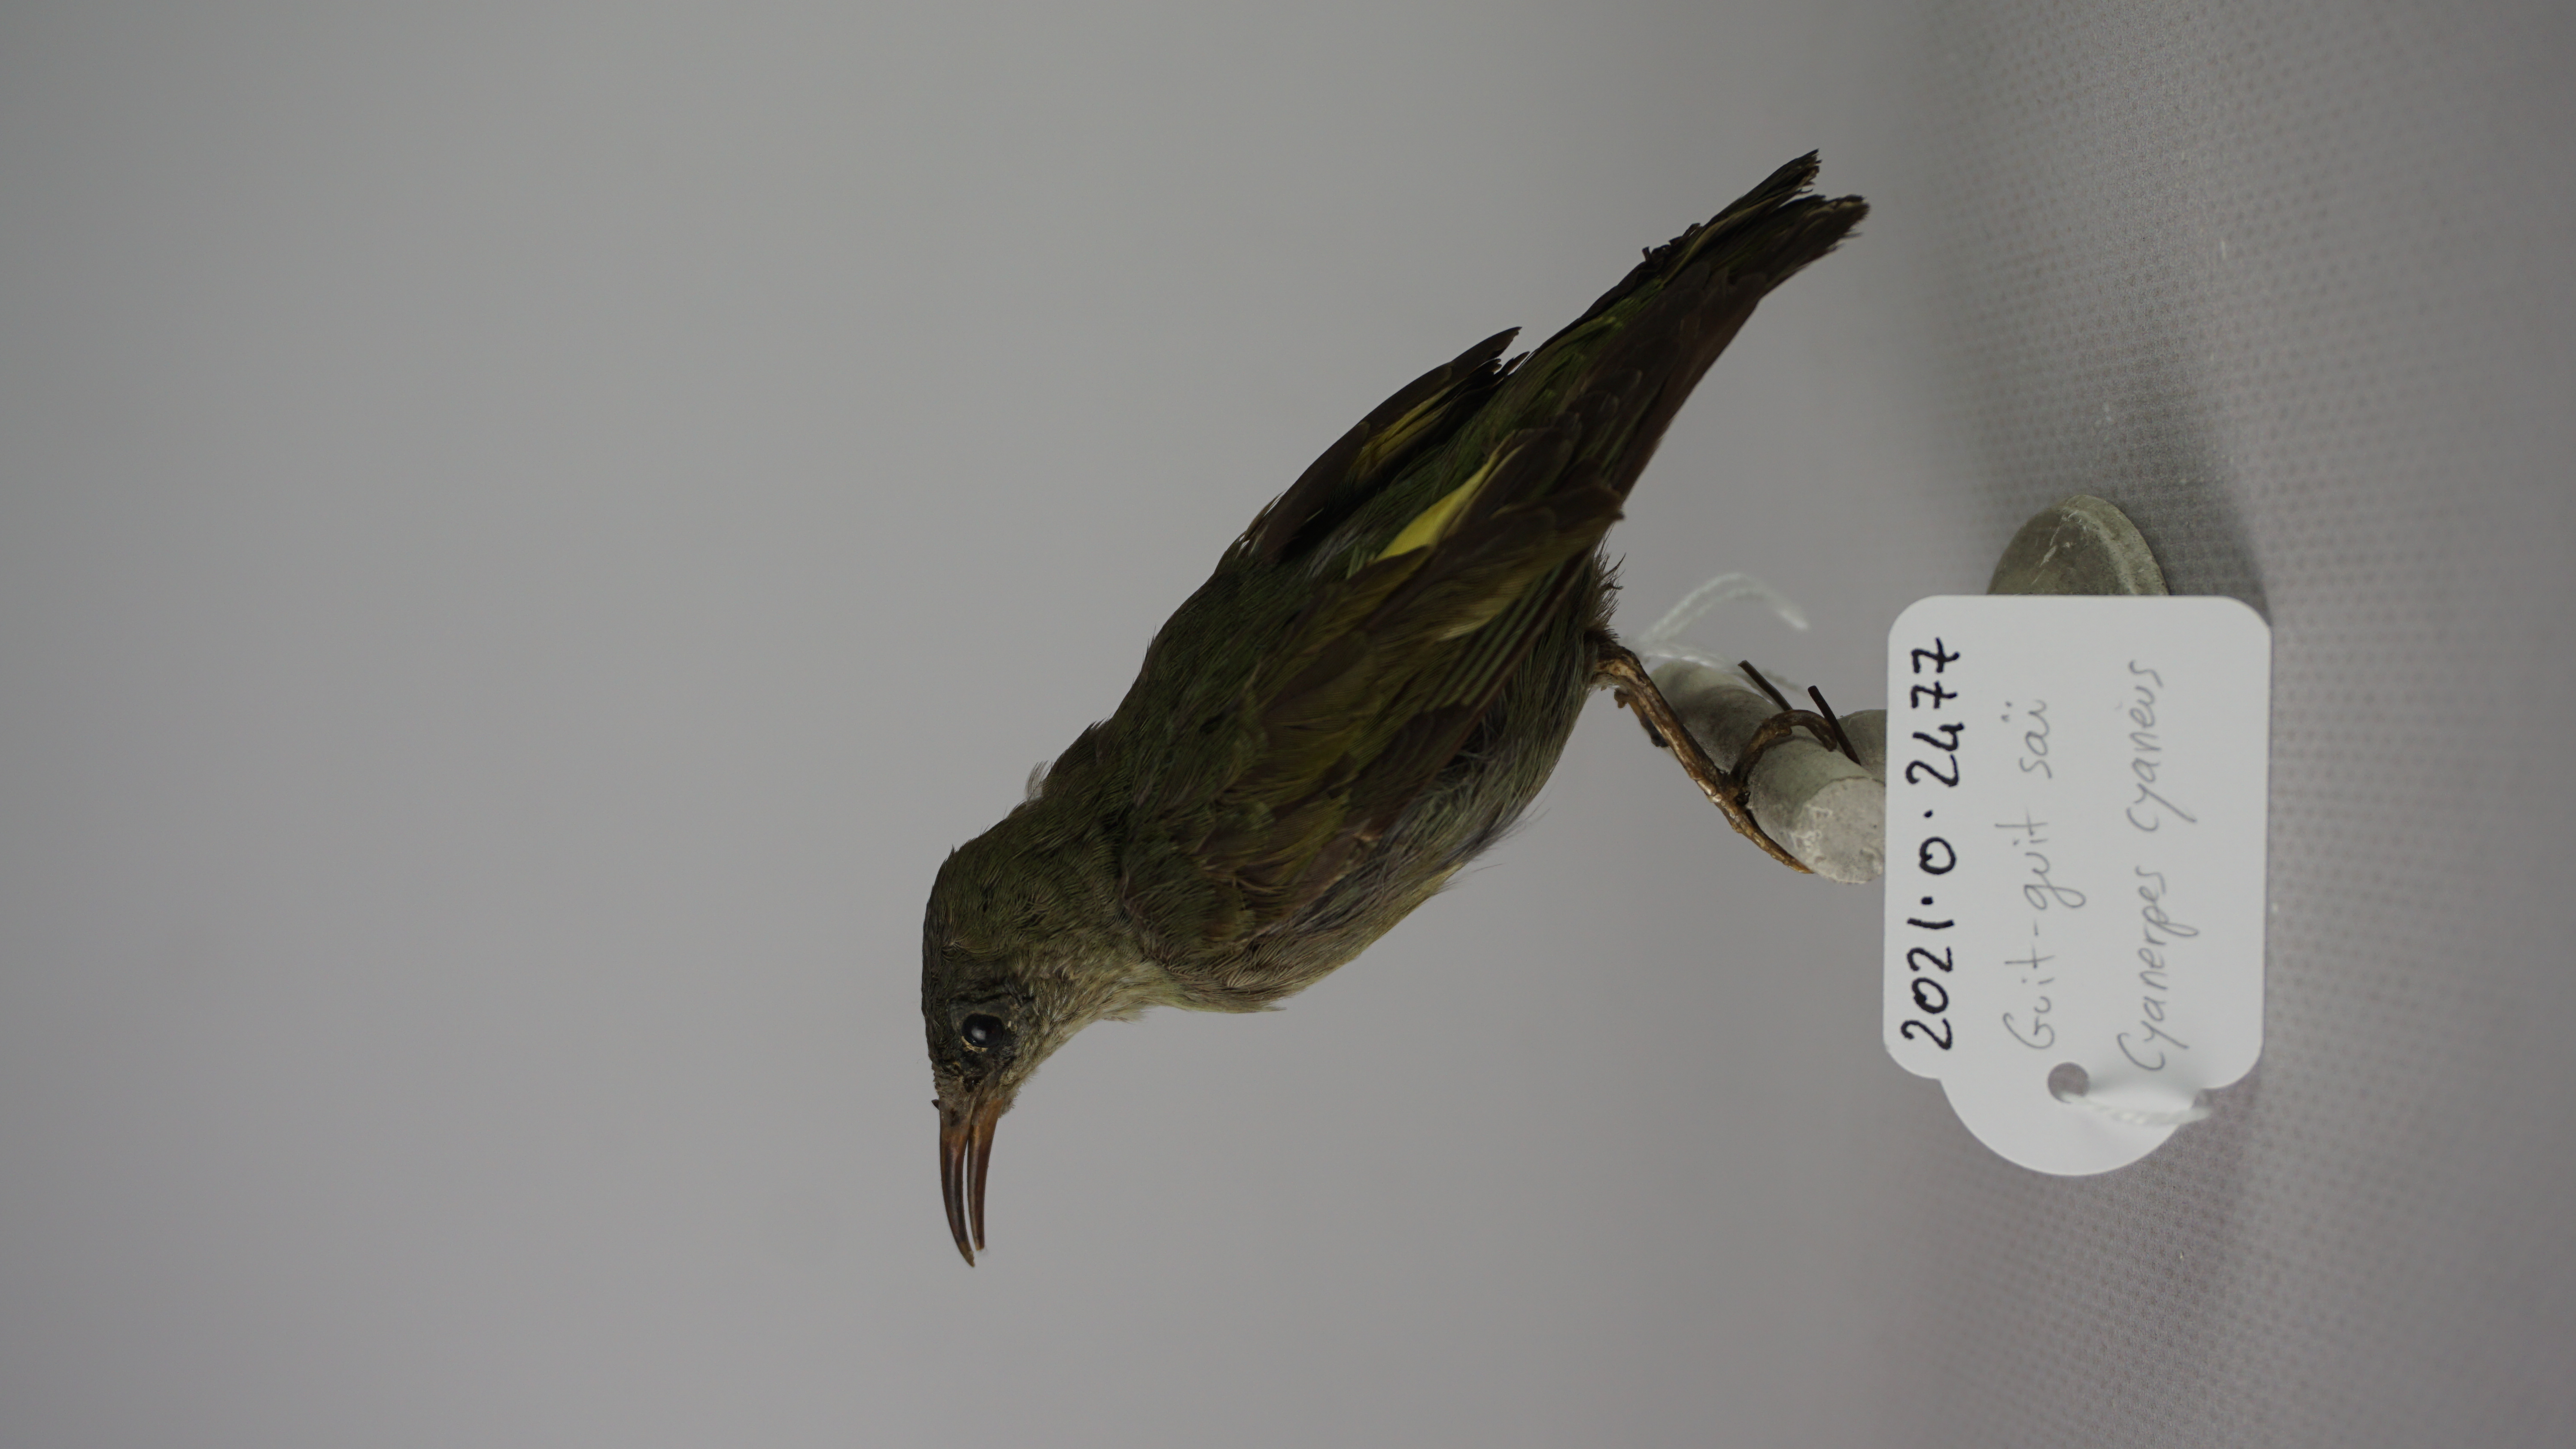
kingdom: Animalia
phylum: Chordata
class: Aves
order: Passeriformes
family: Thraupidae
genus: Cyanerpes
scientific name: Cyanerpes cyaneus
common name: Red-legged honeycreeper
